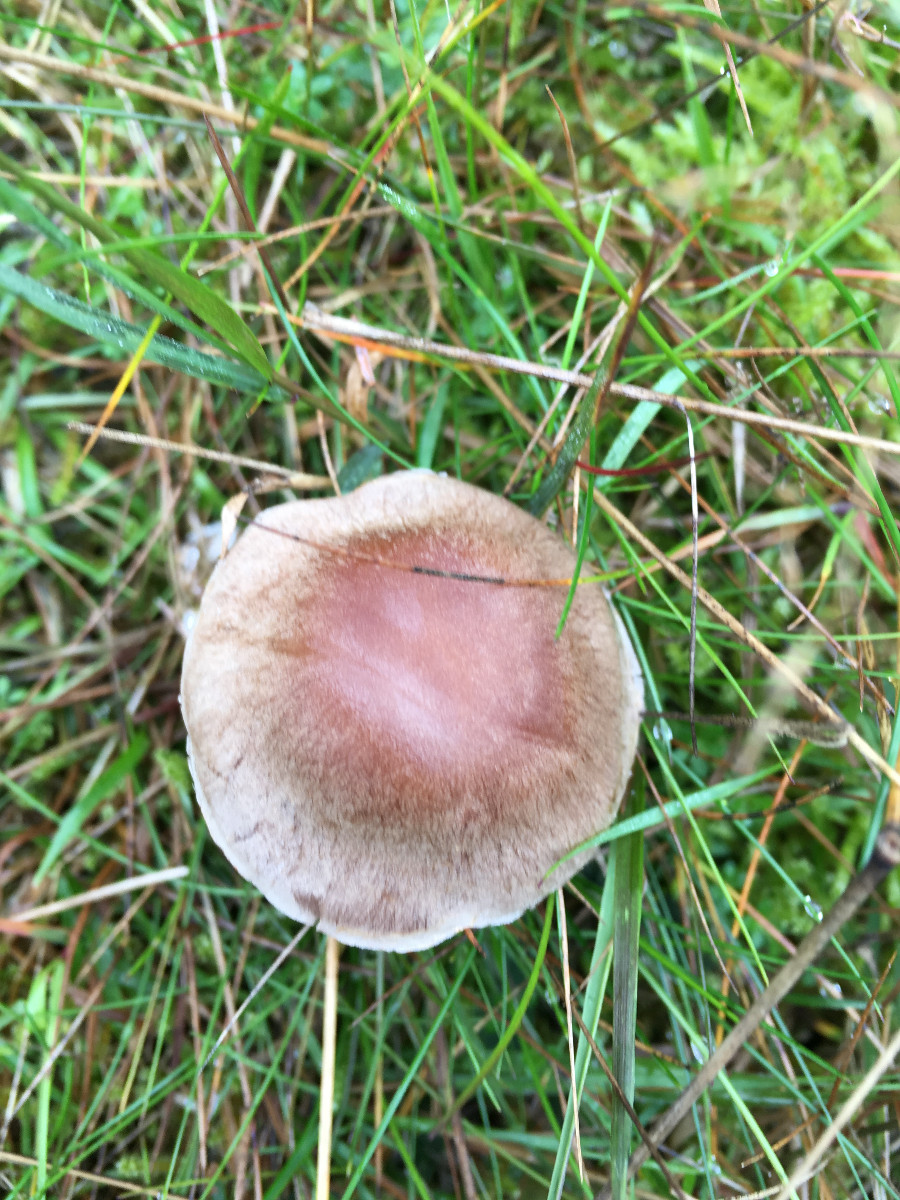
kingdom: Fungi
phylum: Basidiomycota
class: Agaricomycetes
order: Agaricales
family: Cortinariaceae
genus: Cortinarius
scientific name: Cortinarius
